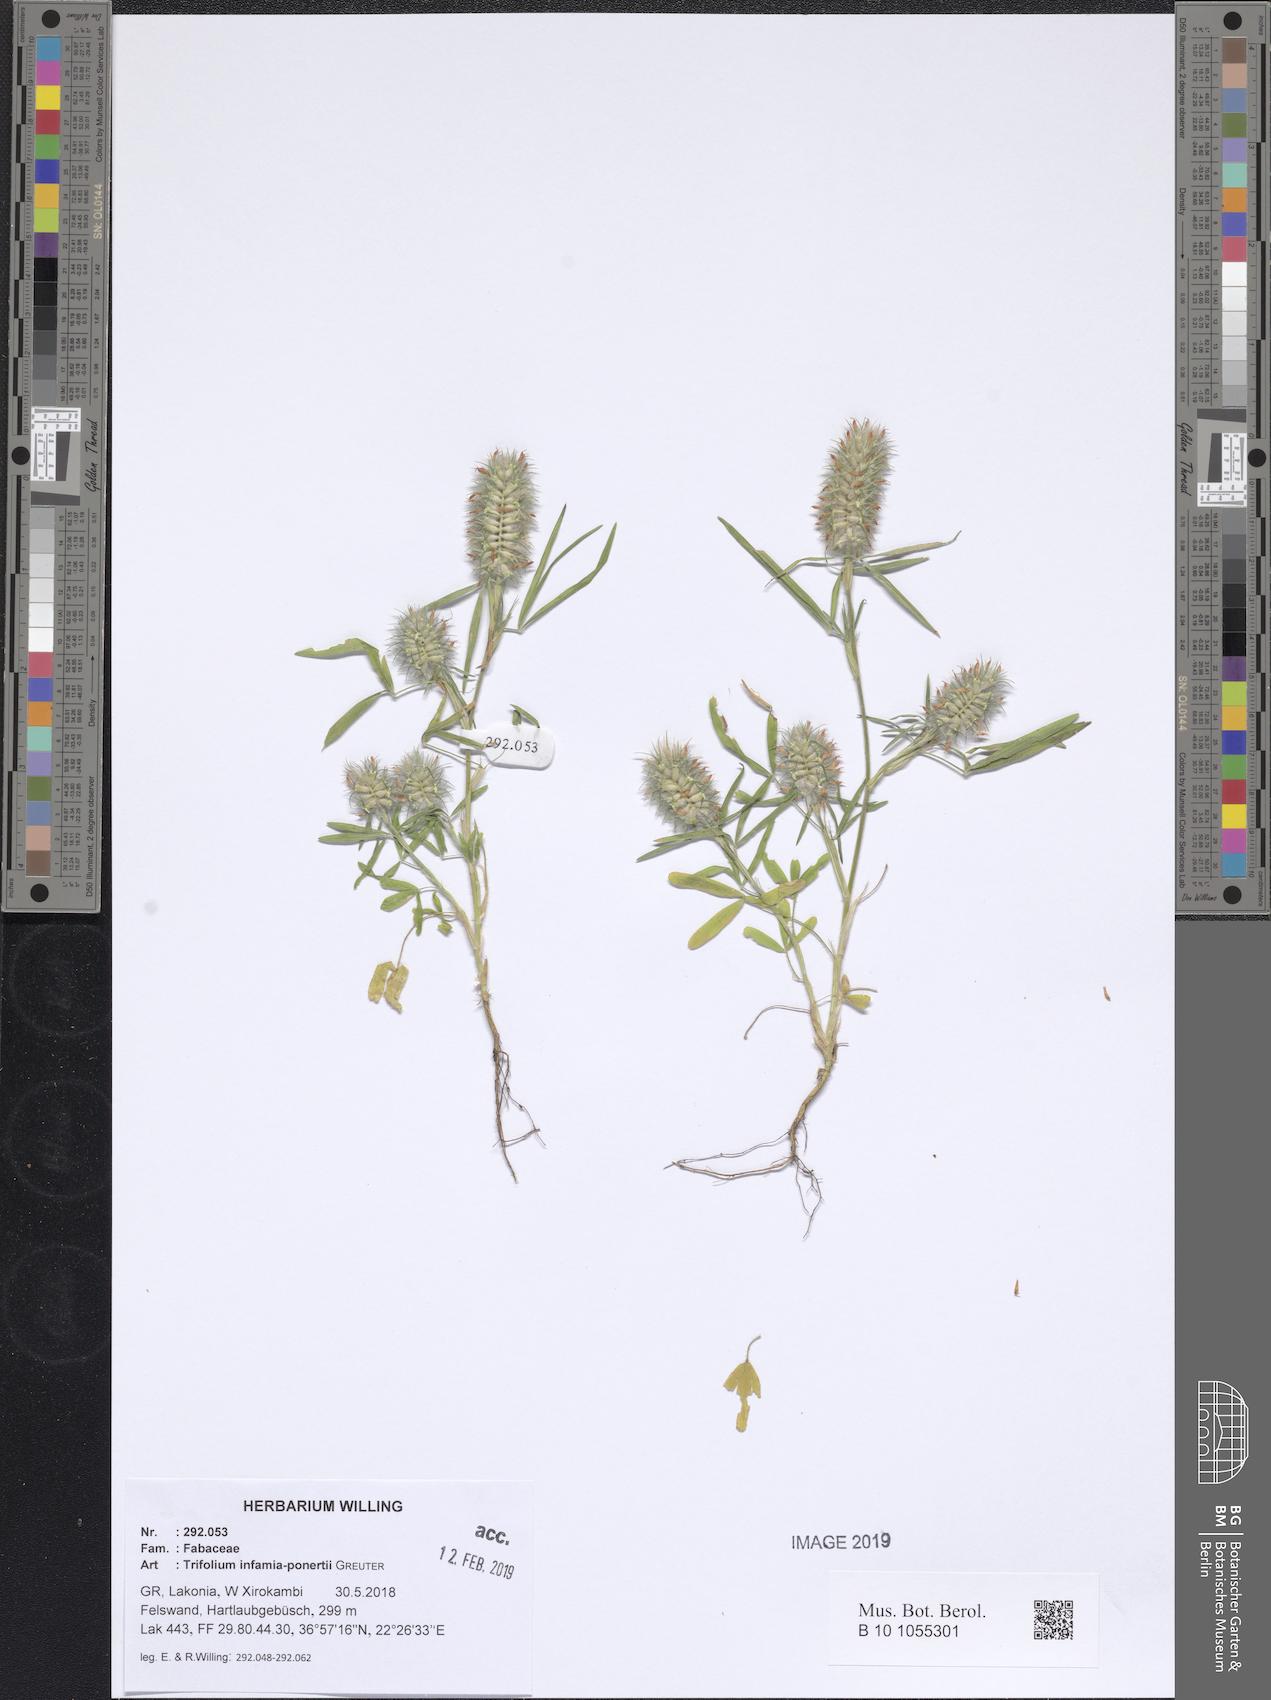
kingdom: Plantae
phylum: Tracheophyta
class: Magnoliopsida
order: Fabales
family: Fabaceae
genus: Trifolium
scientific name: Trifolium infamia-ponertii
